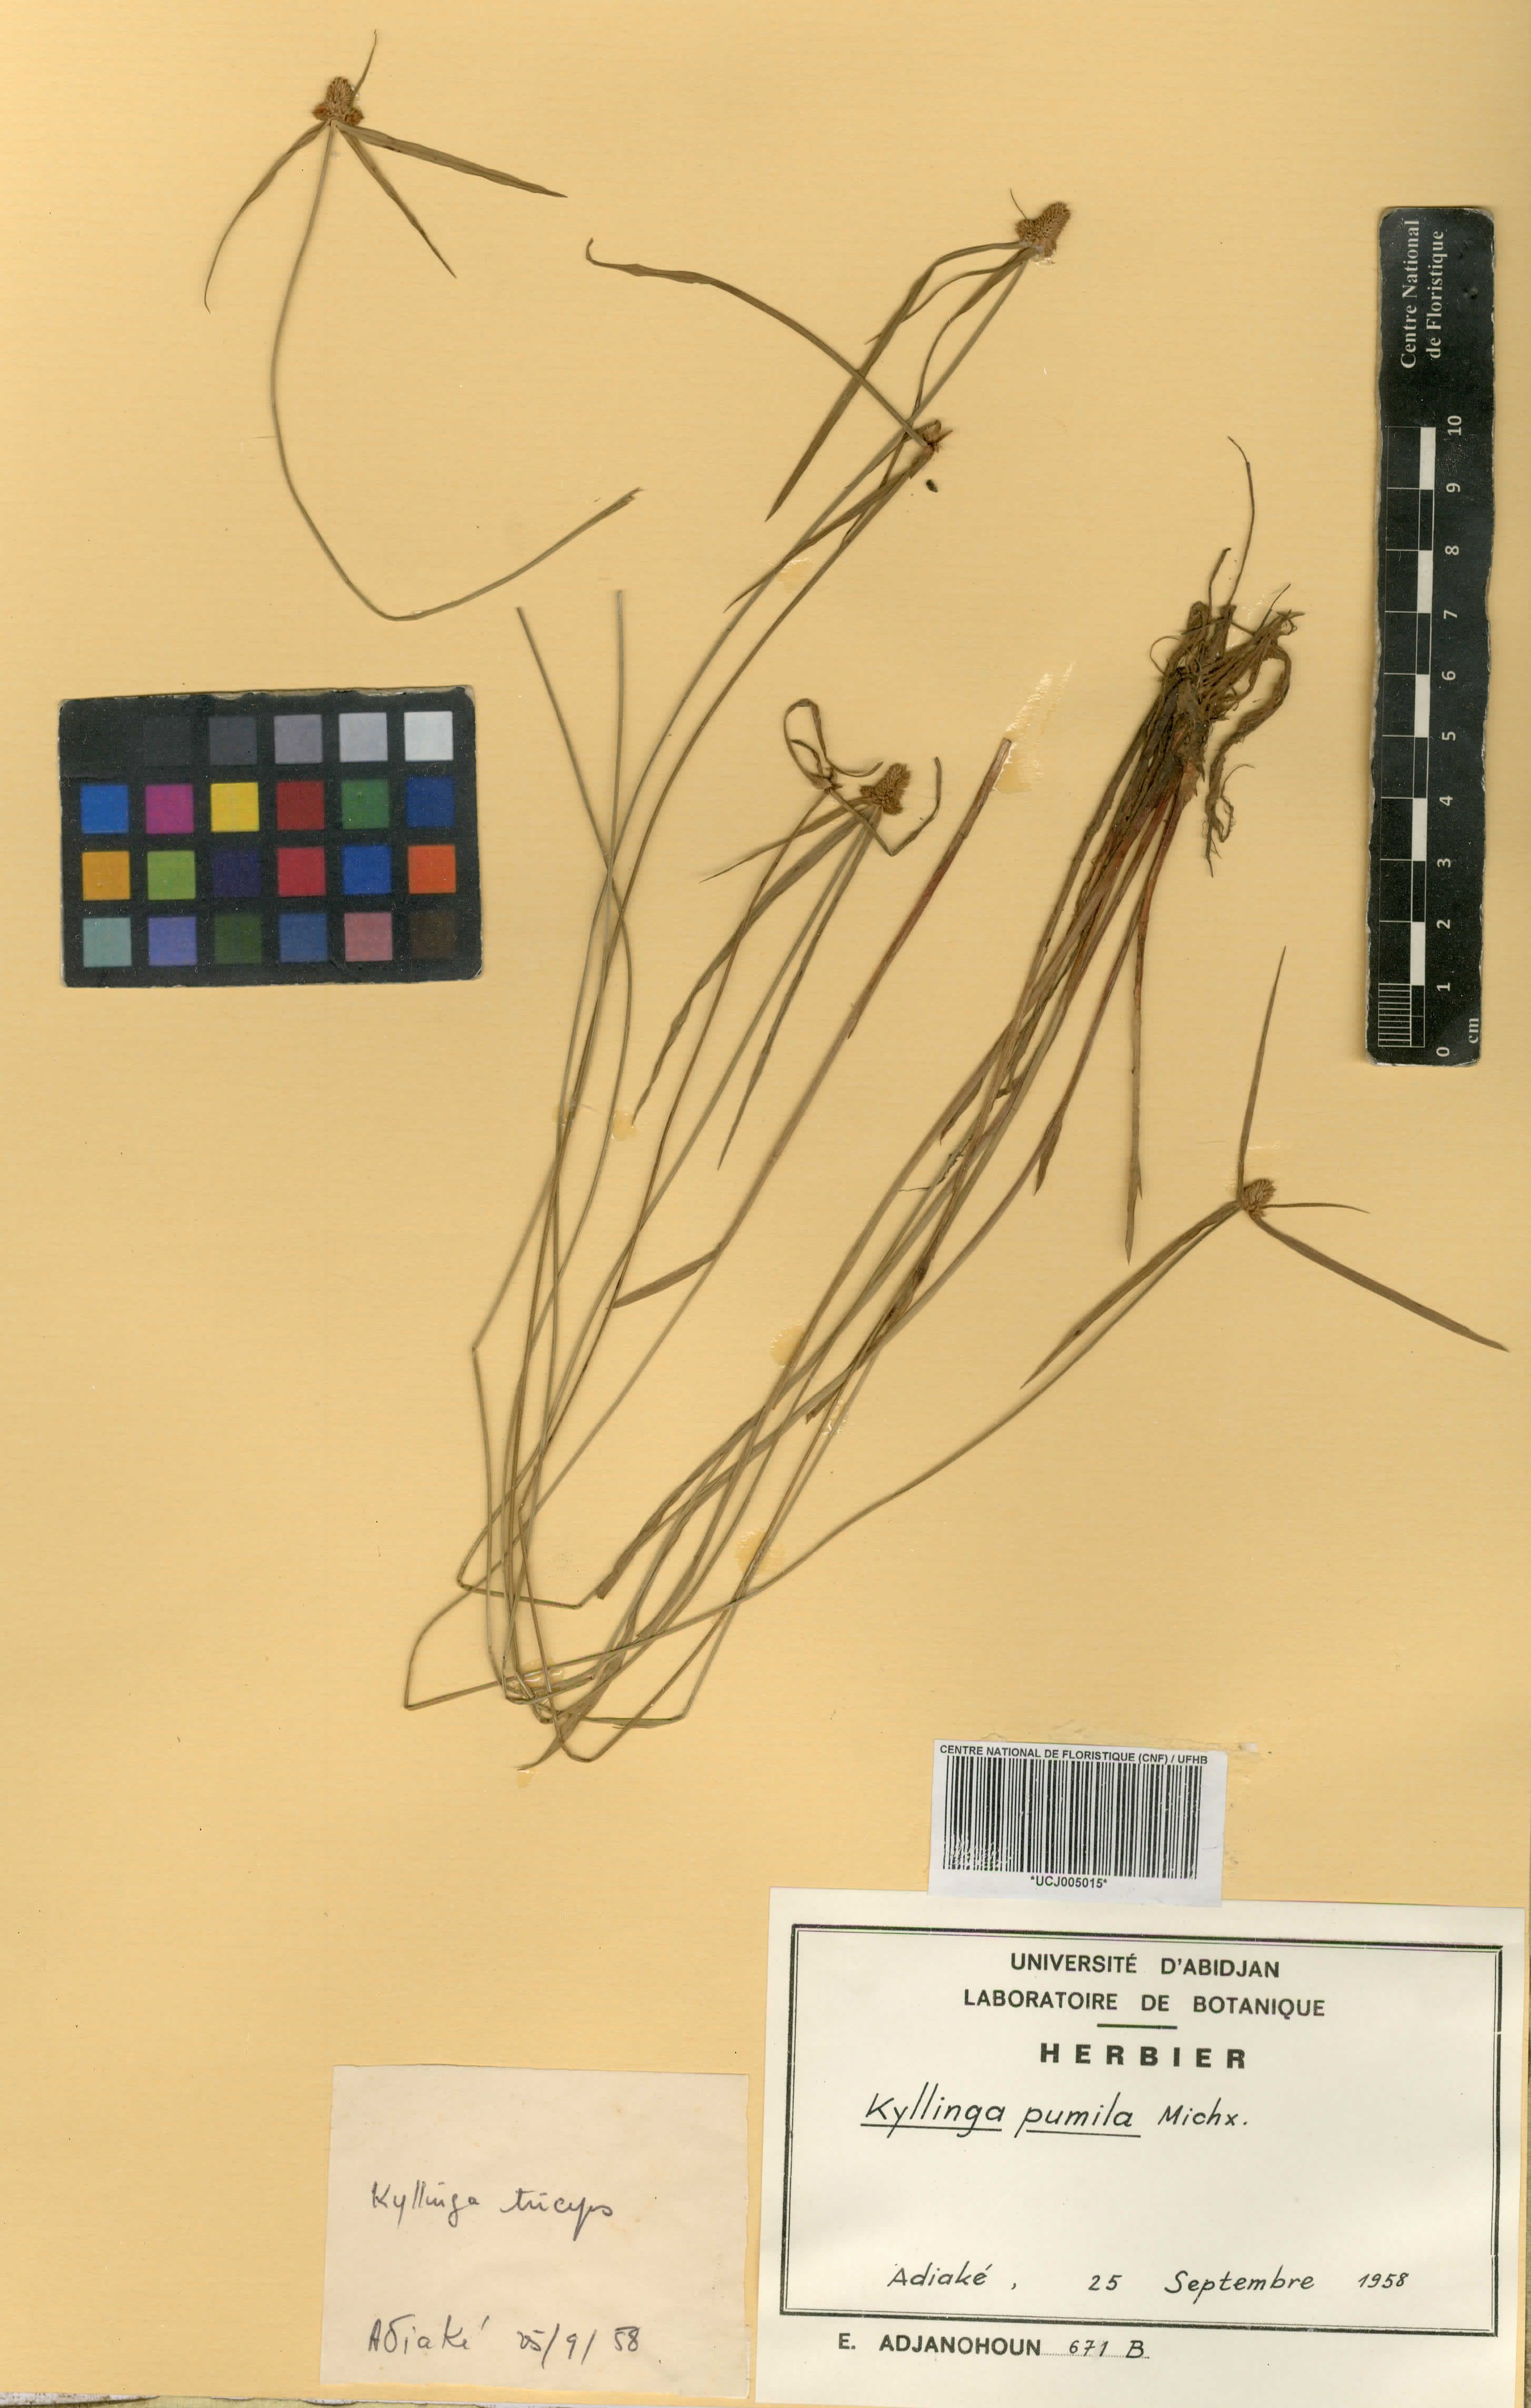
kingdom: Plantae
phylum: Tracheophyta
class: Liliopsida
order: Poales
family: Cyperaceae
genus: Cyperus
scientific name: Cyperus hortensis
